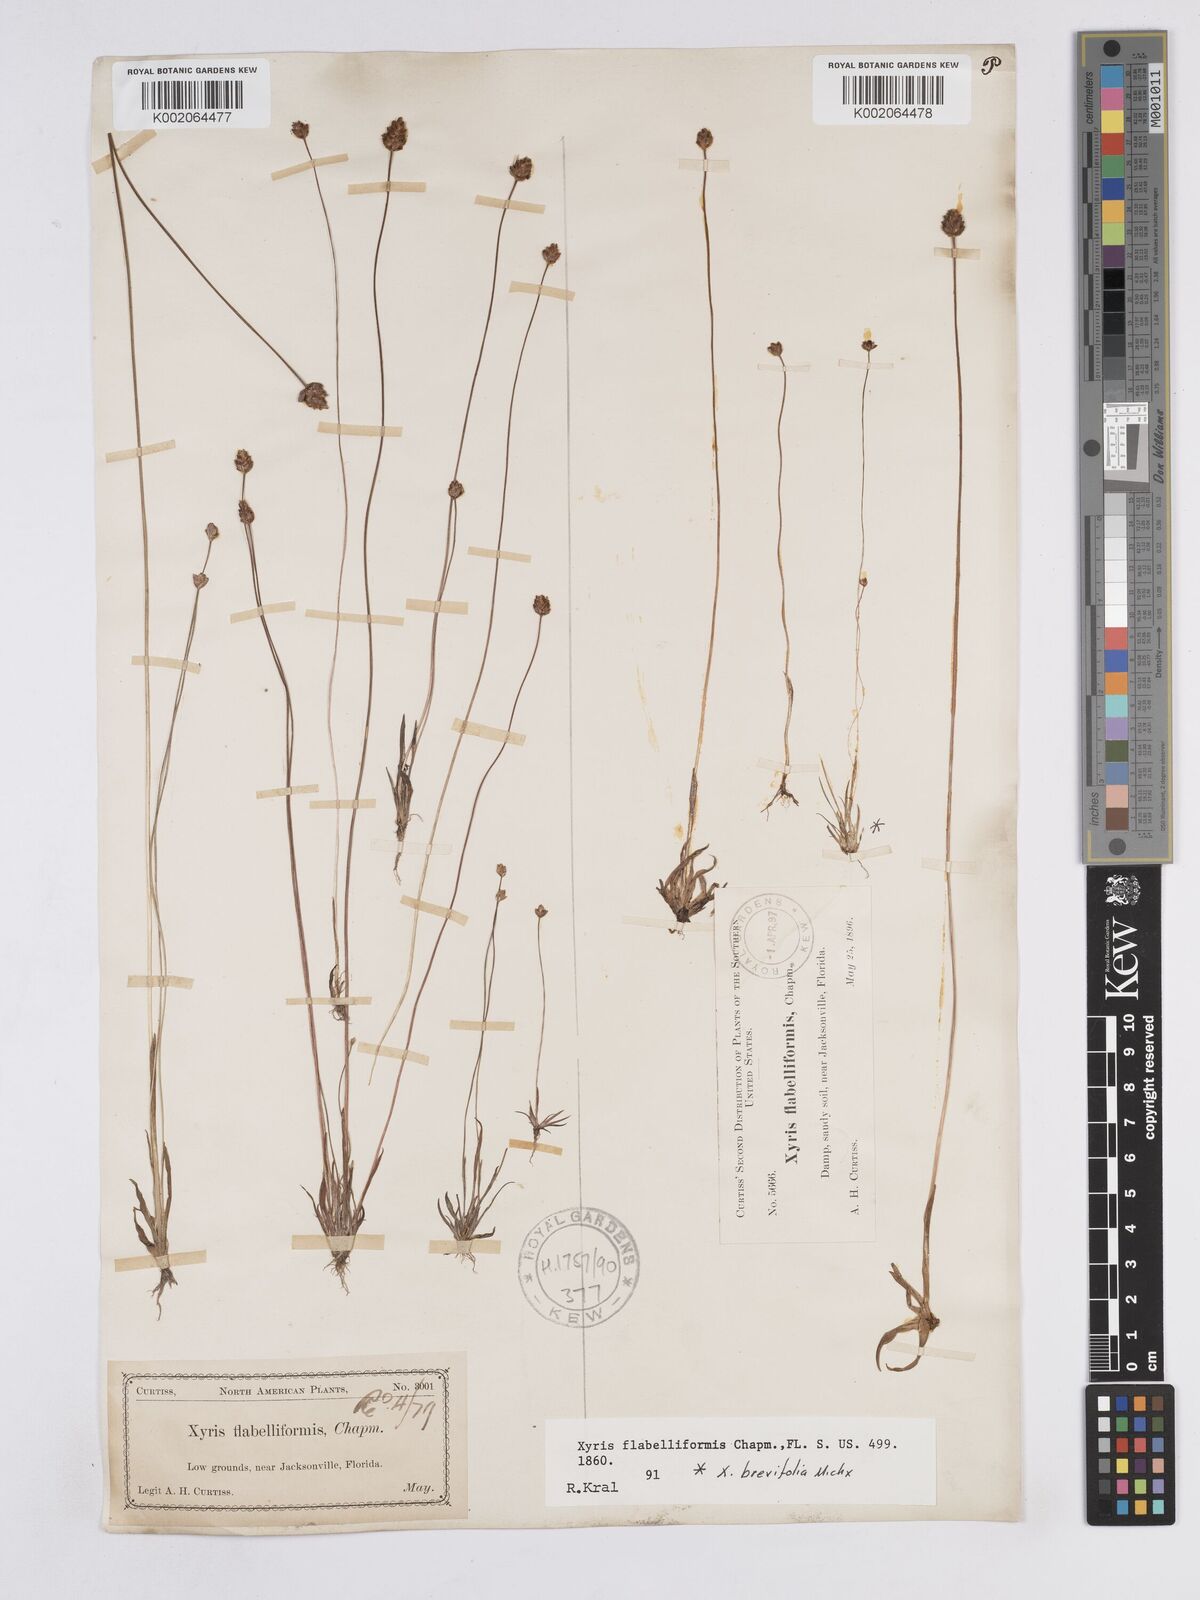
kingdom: Plantae
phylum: Tracheophyta
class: Liliopsida
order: Poales
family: Xyridaceae
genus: Xyris
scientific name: Xyris flabelliformis
